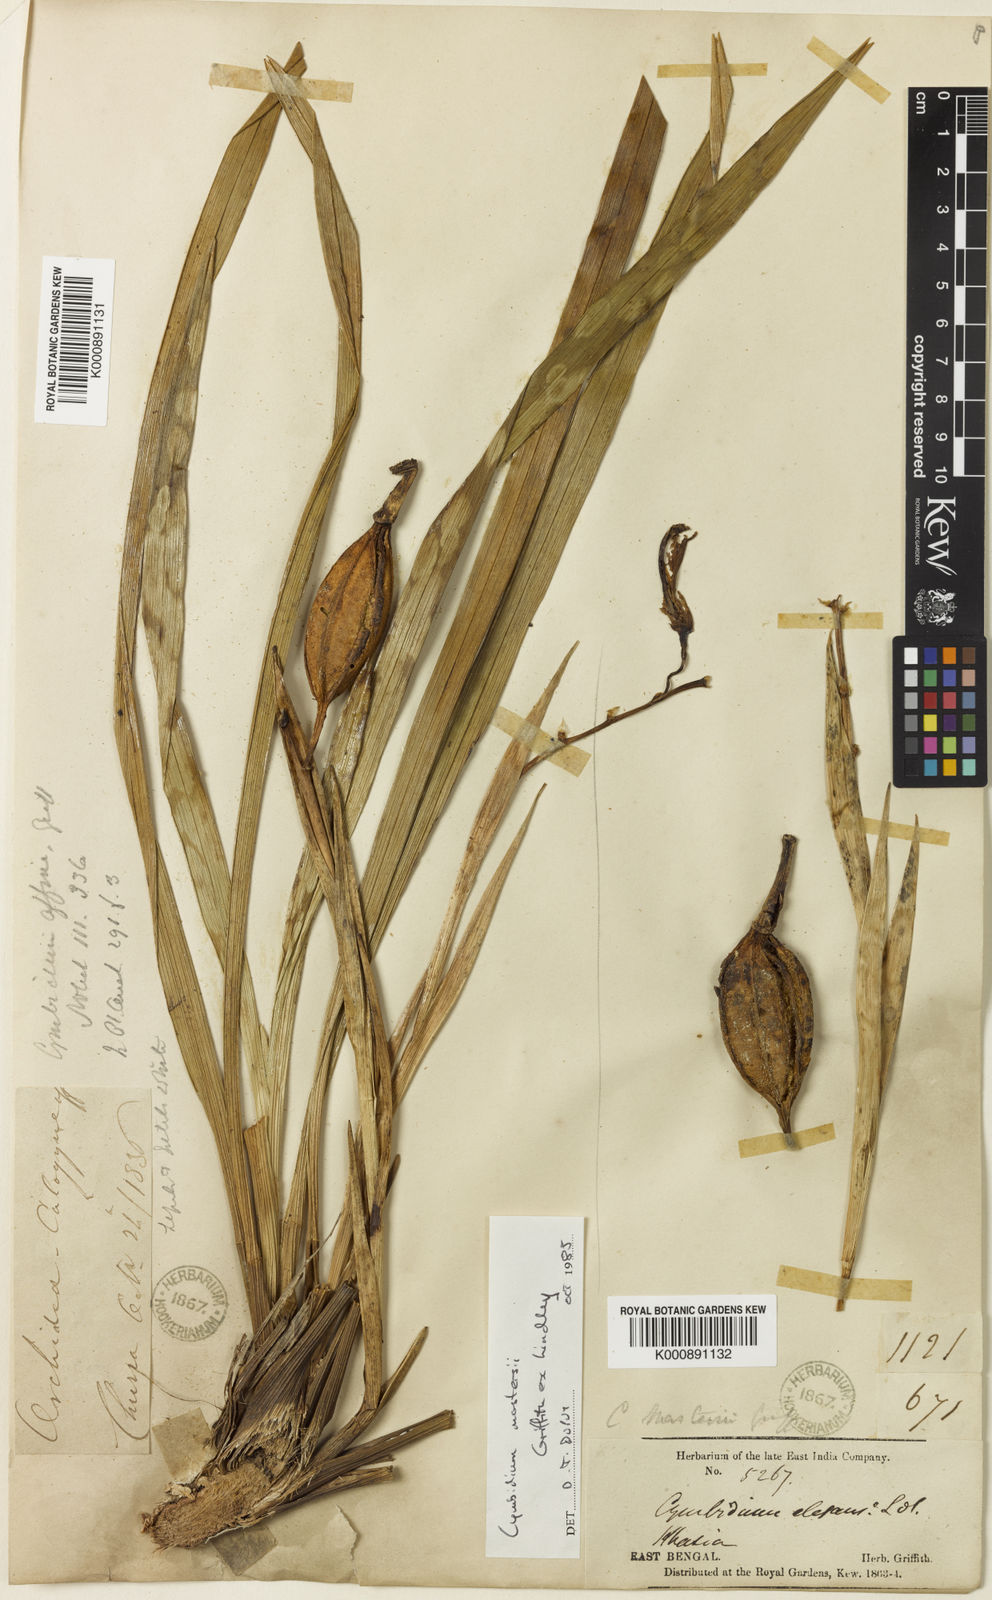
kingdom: Plantae
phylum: Tracheophyta
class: Liliopsida
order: Asparagales
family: Orchidaceae
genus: Cymbidium
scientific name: Cymbidium mastersii
